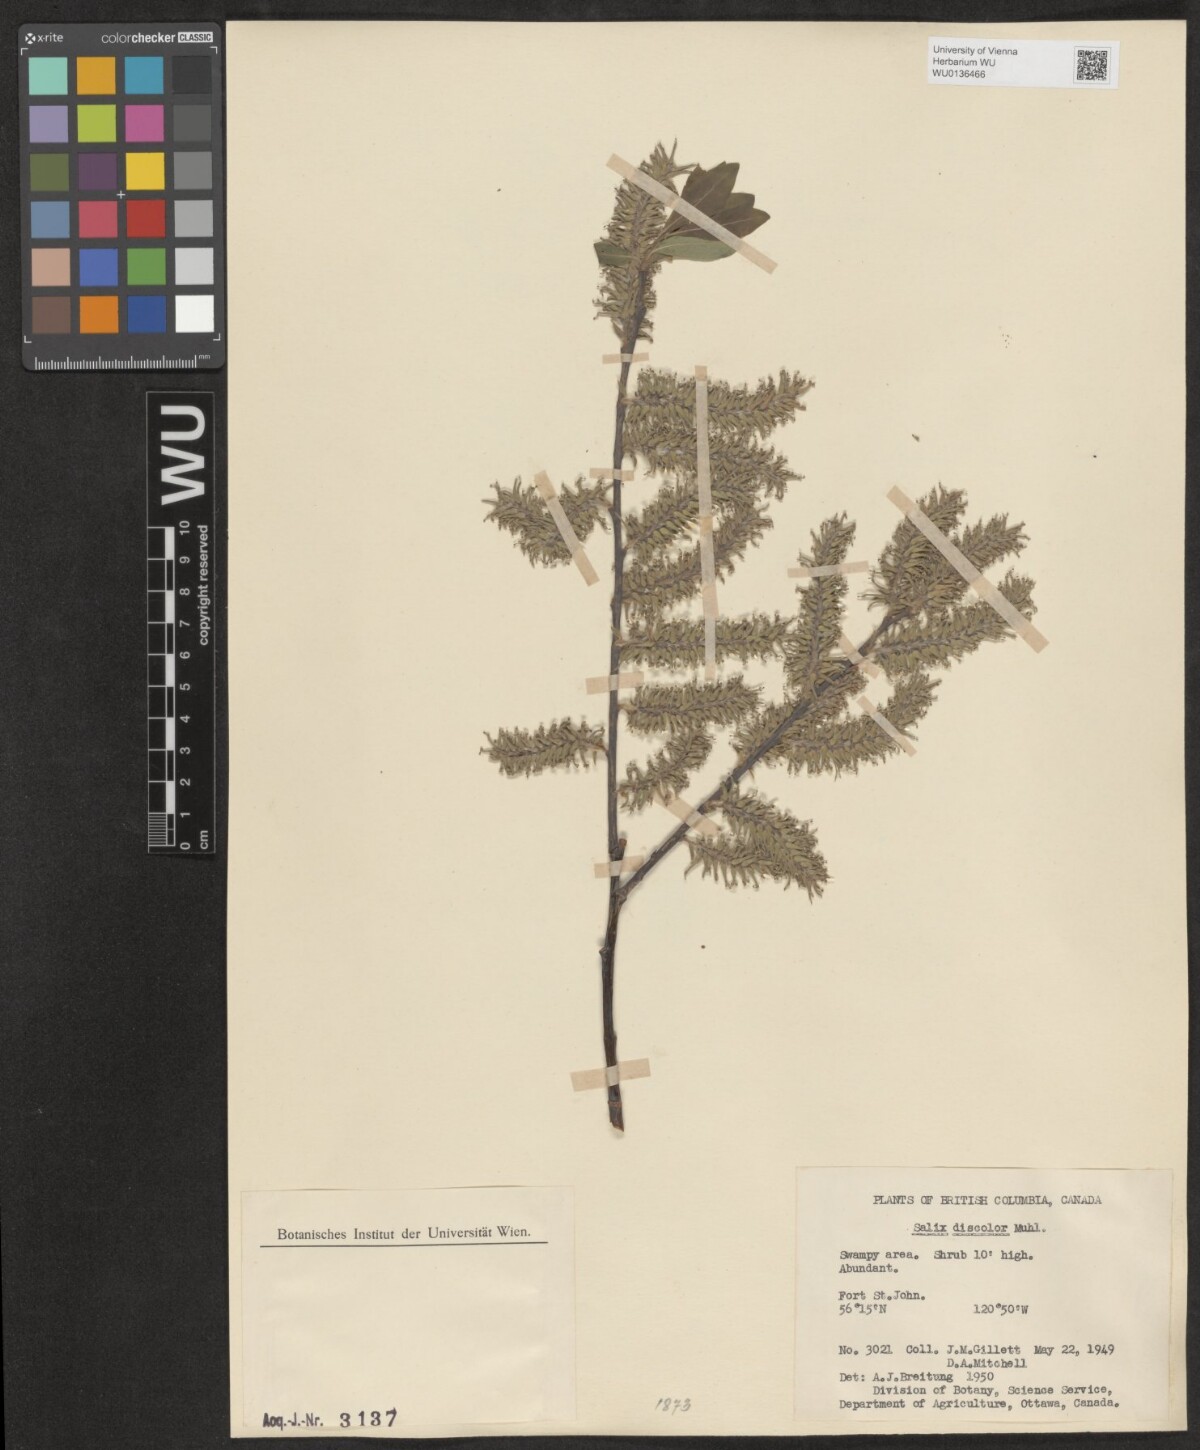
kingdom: Plantae
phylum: Tracheophyta
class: Magnoliopsida
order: Malpighiales
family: Salicaceae
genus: Salix
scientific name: Salix discolor
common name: Glaucous willow
